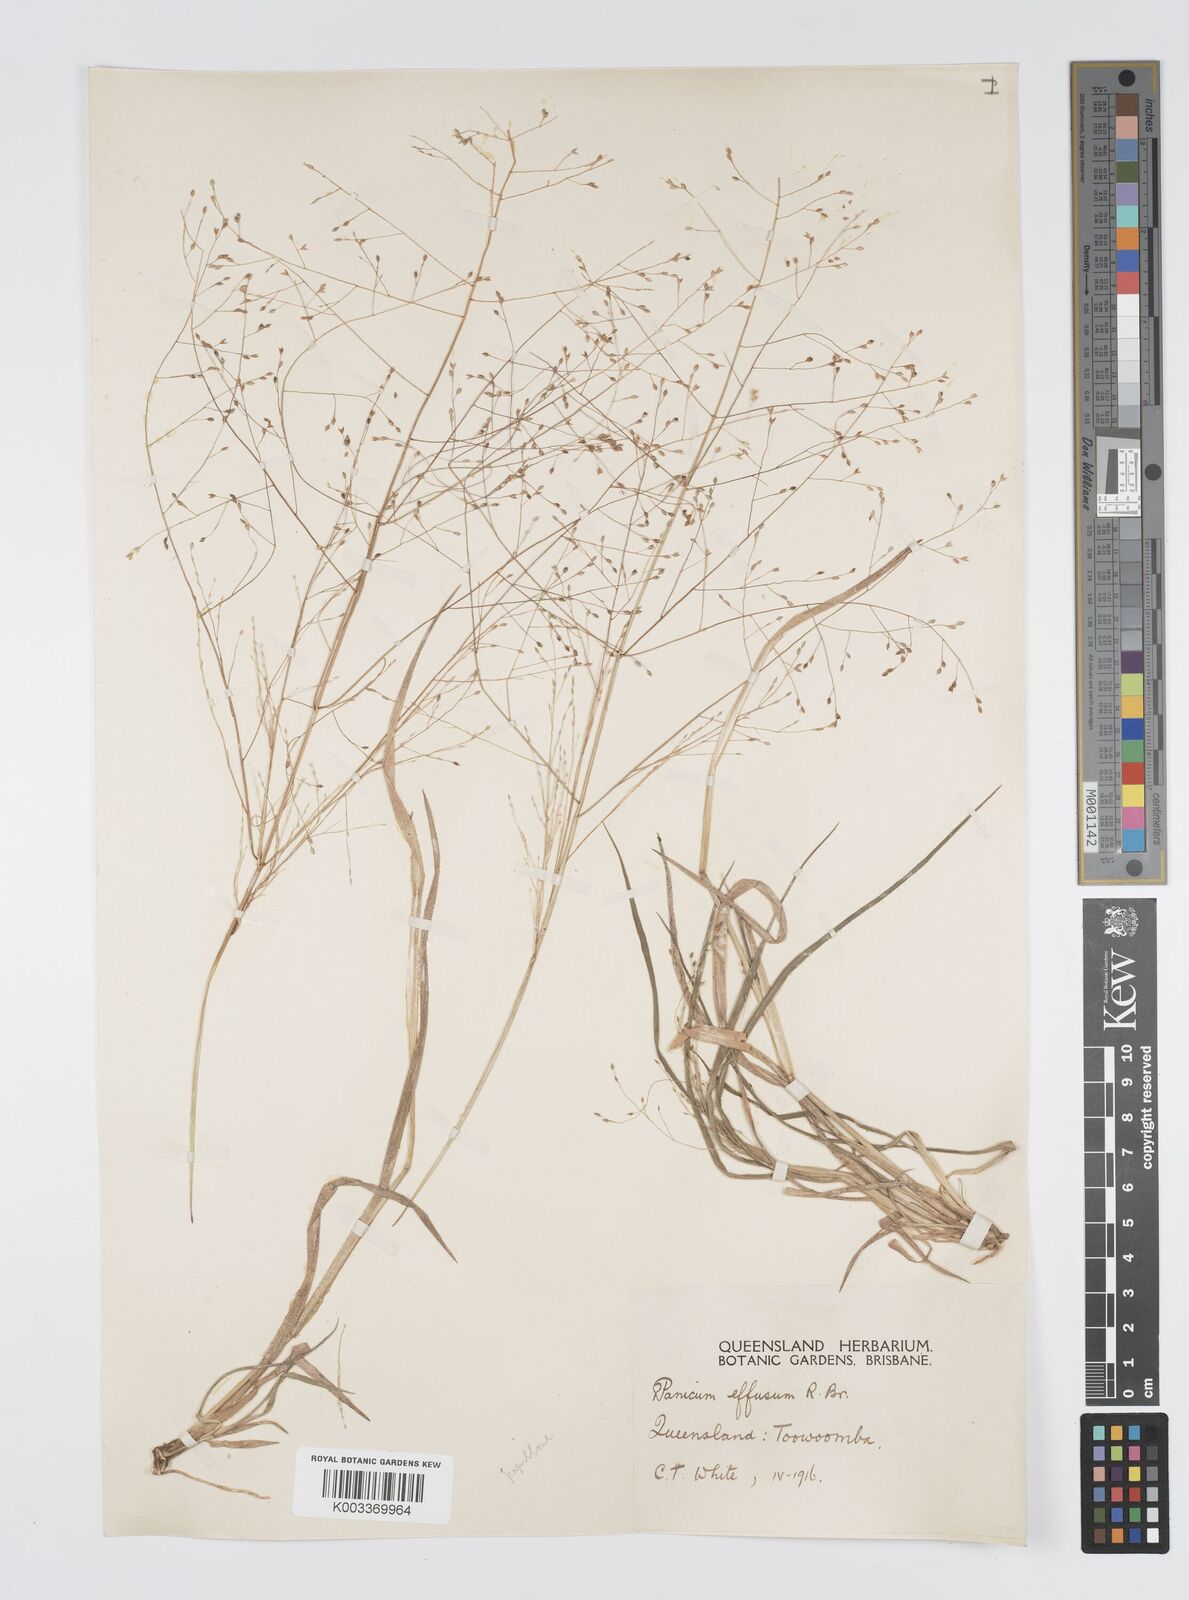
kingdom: Plantae
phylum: Tracheophyta
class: Liliopsida
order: Poales
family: Poaceae
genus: Panicum
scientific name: Panicum effusum
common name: Hairy panic grass
